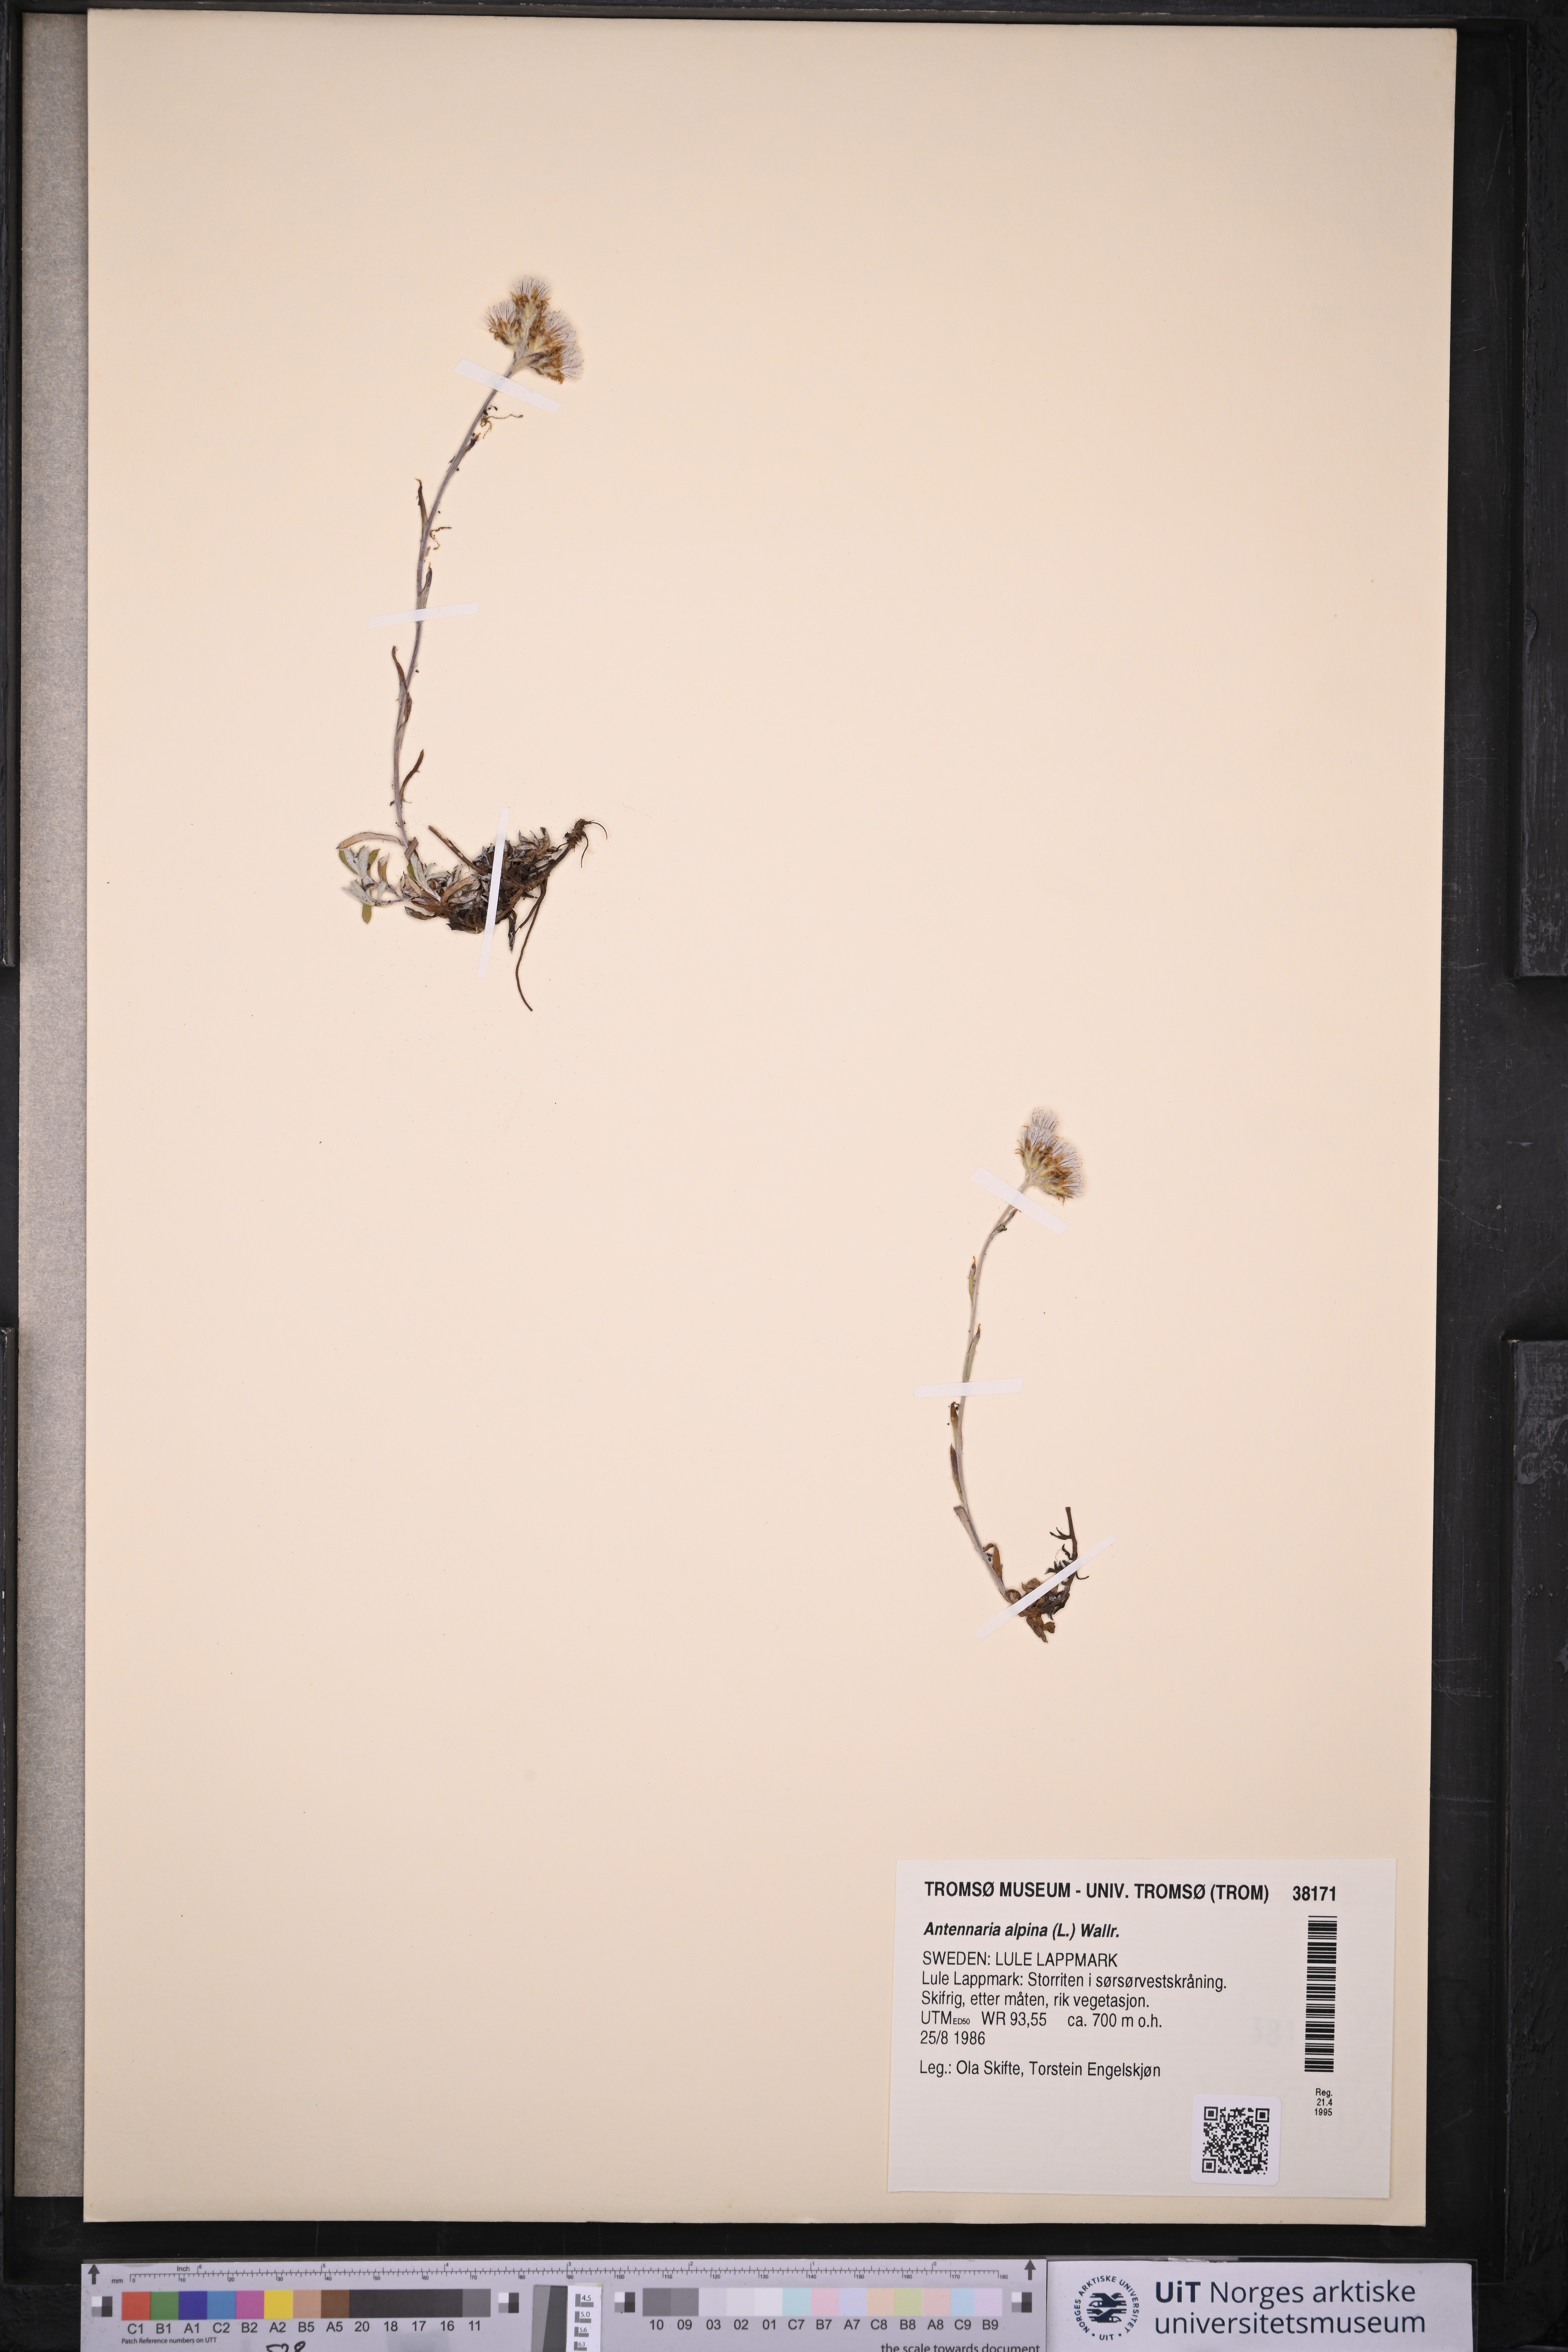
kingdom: Plantae
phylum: Tracheophyta
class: Magnoliopsida
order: Asterales
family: Asteraceae
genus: Antennaria
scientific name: Antennaria alpina
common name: Alpine pussytoes
